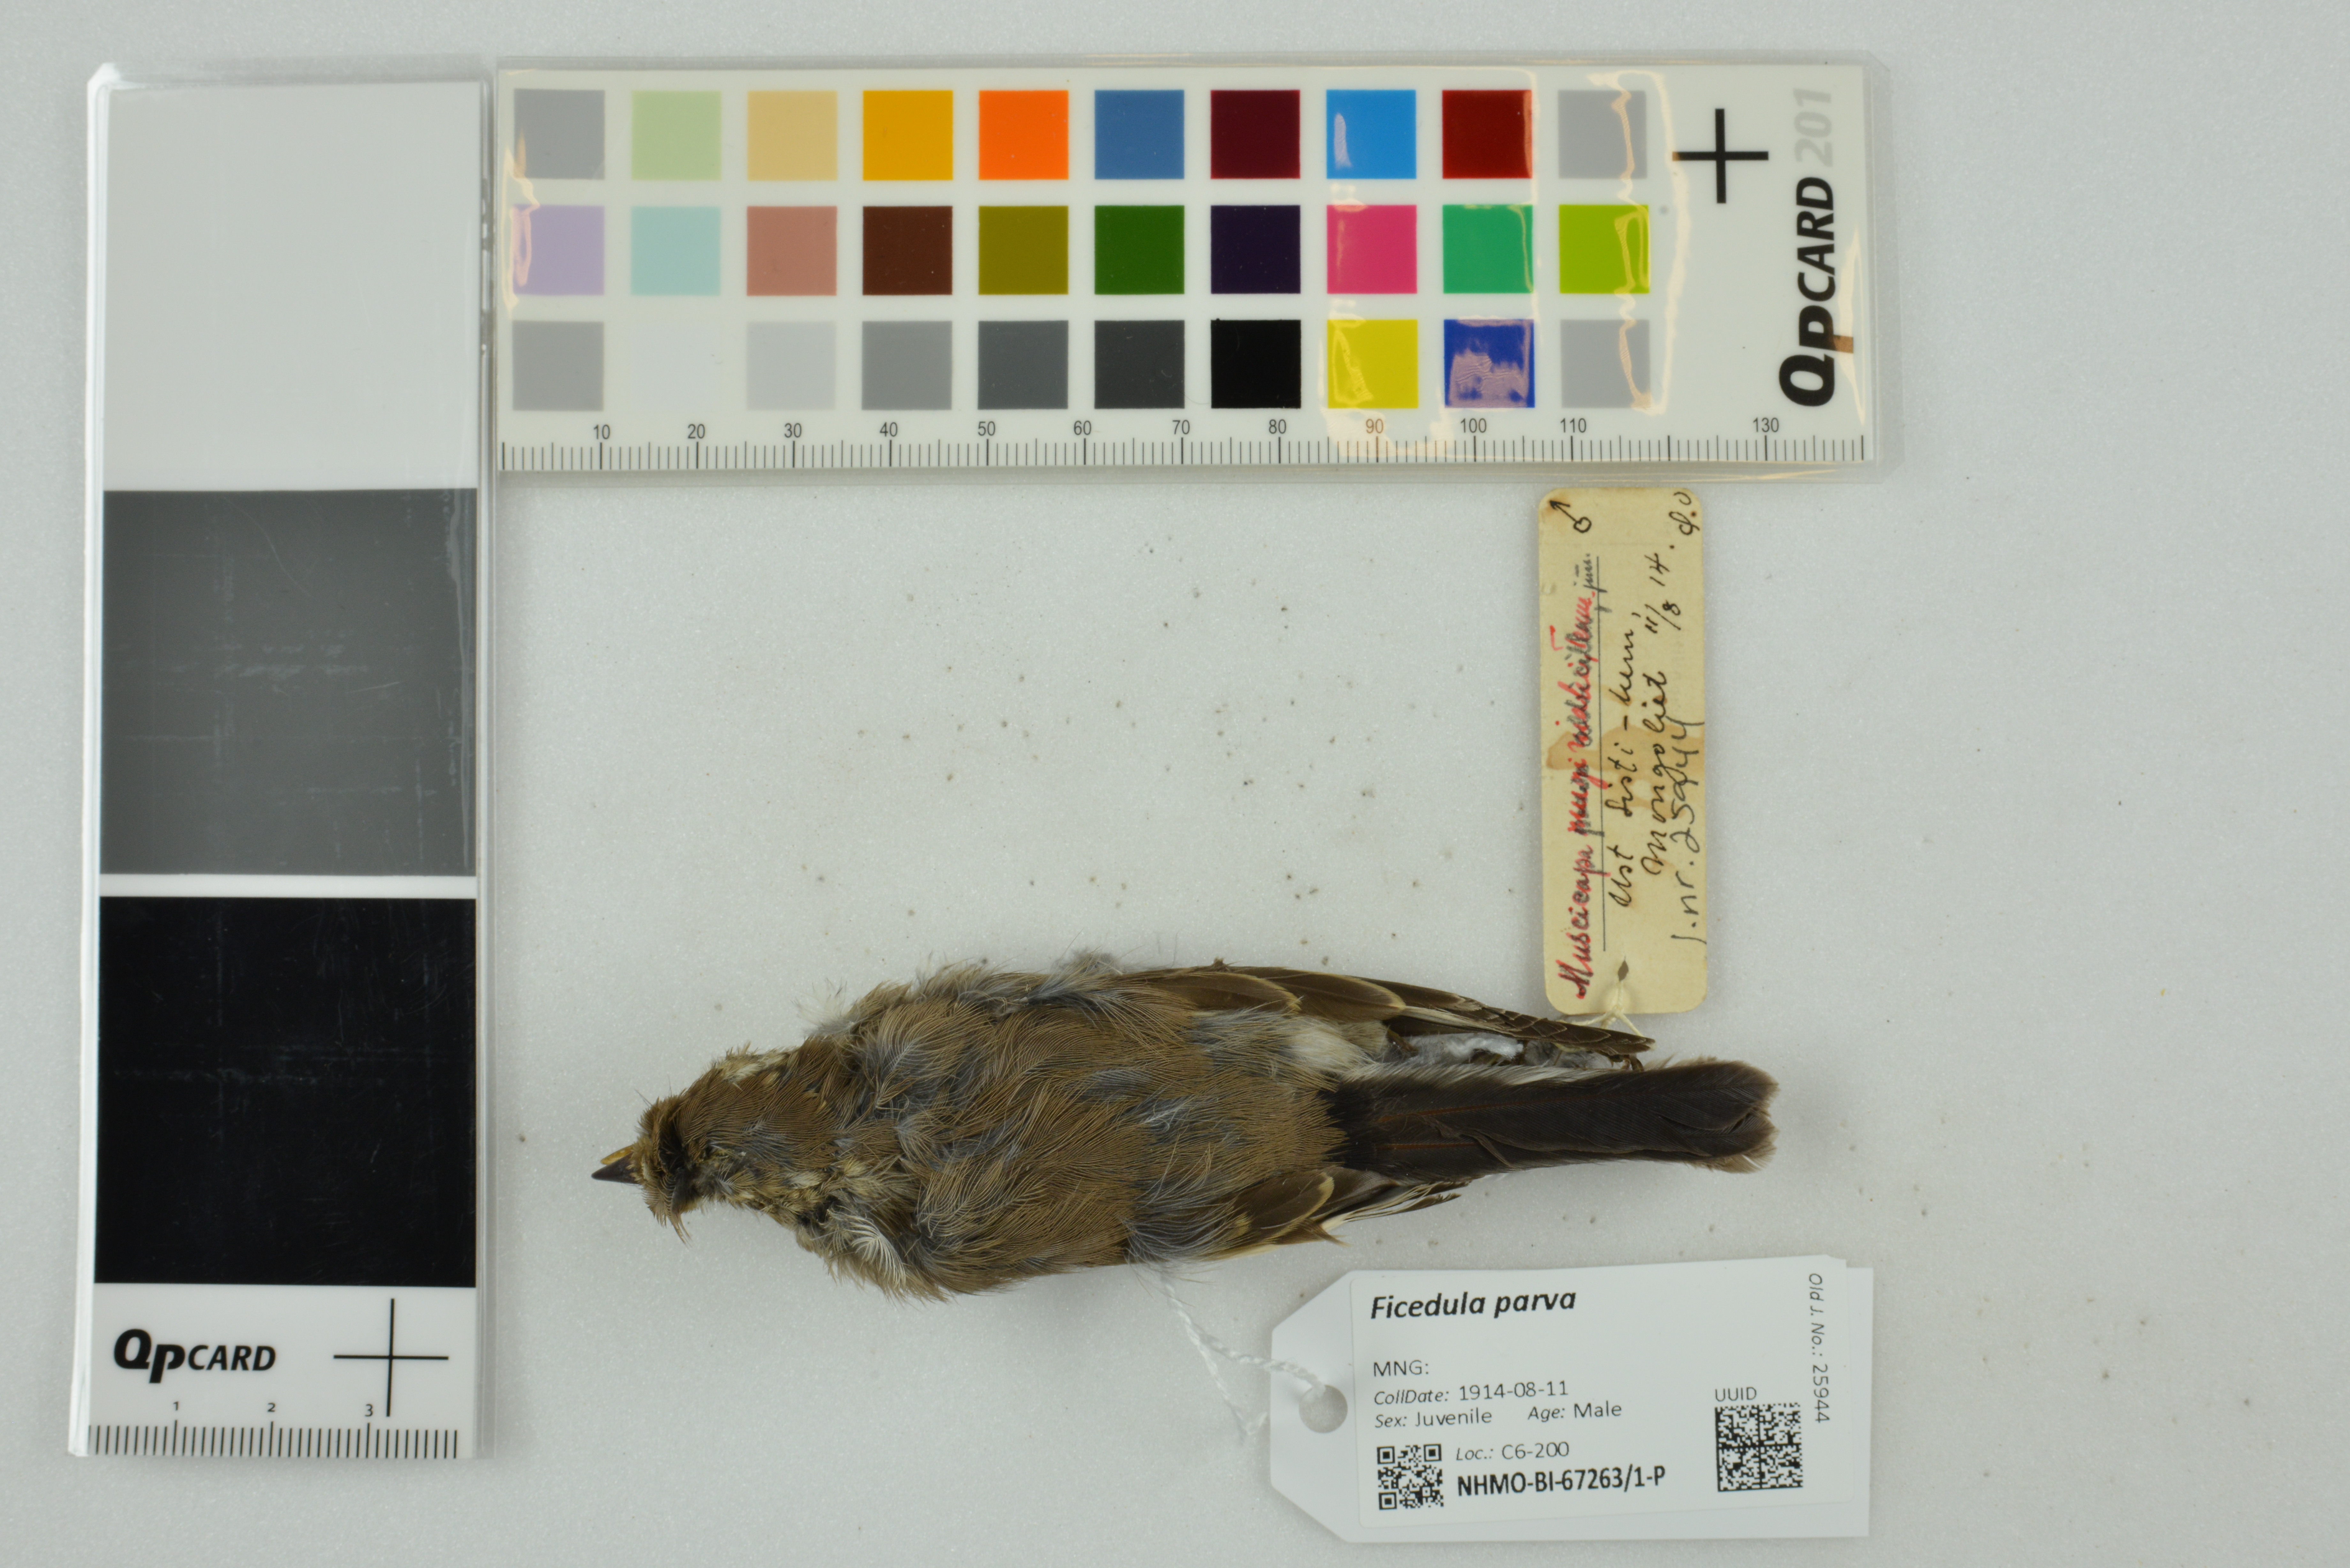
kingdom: Animalia
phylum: Chordata
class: Aves
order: Passeriformes
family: Muscicapidae
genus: Ficedula
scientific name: Ficedula parva
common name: Red-breasted flycatcher
